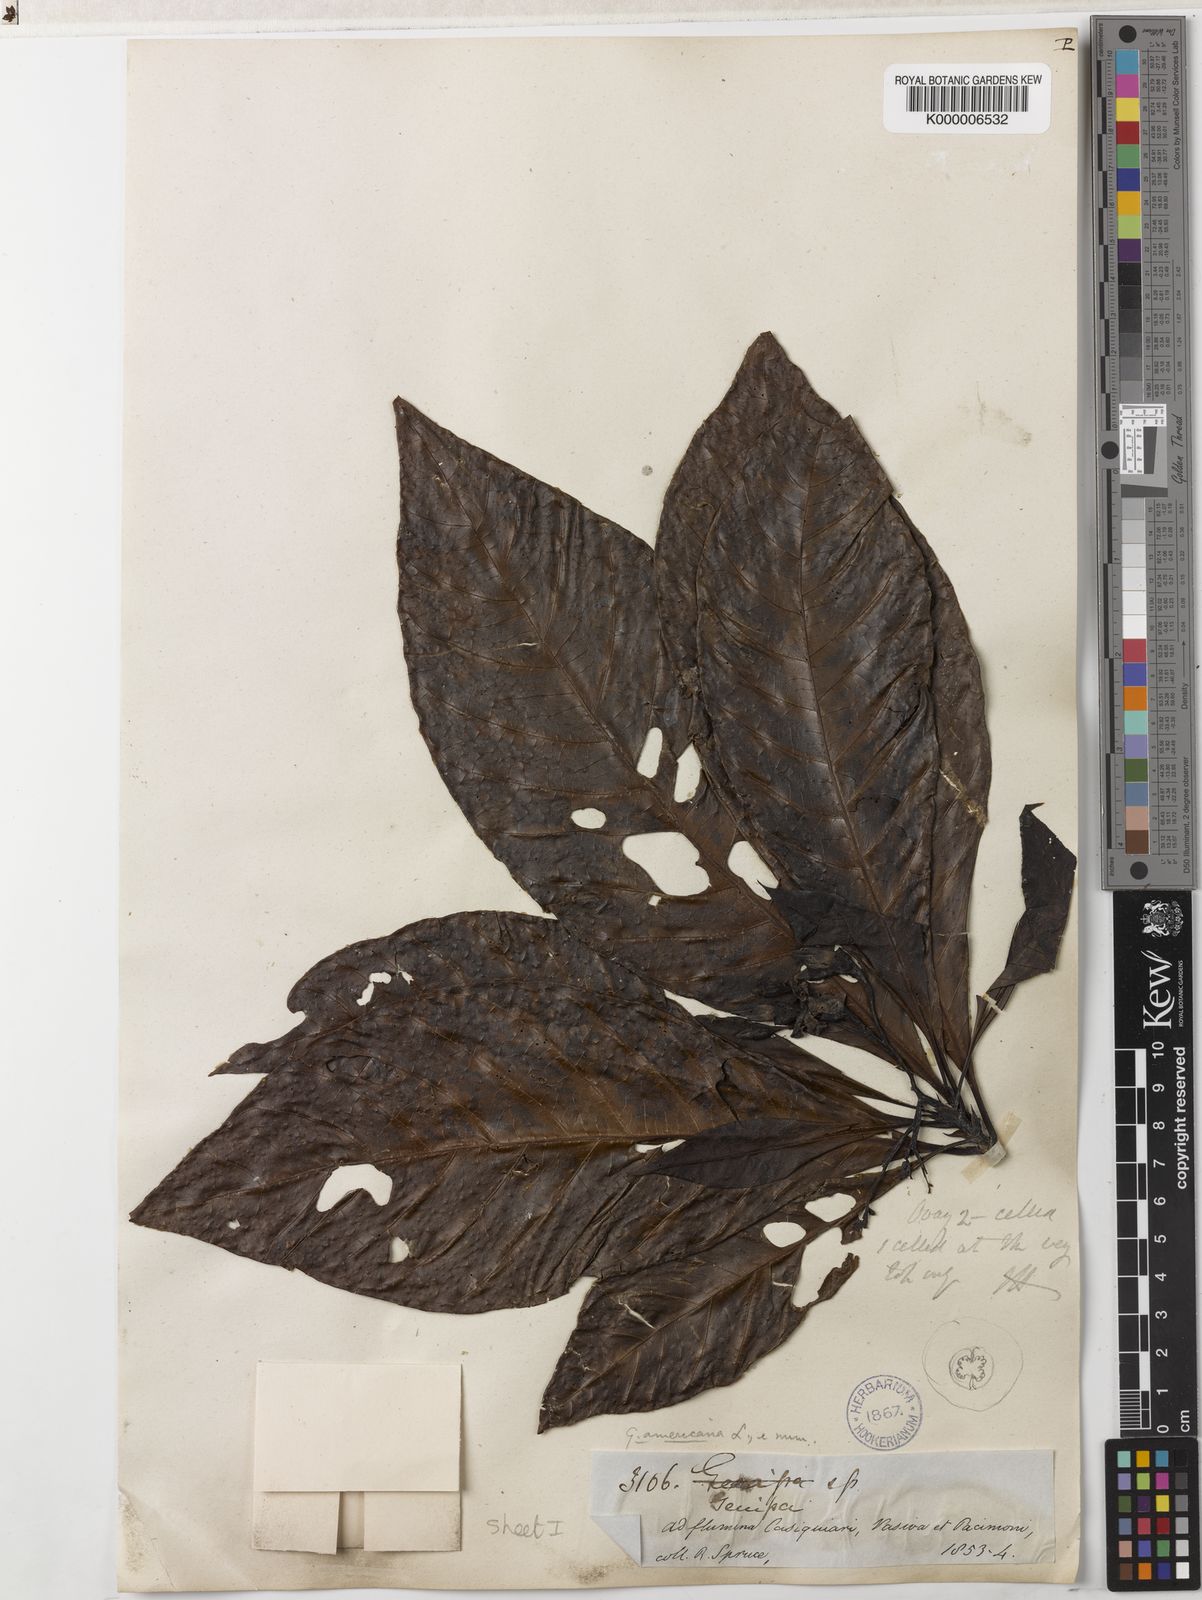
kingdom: Plantae
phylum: Tracheophyta
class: Magnoliopsida
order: Gentianales
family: Rubiaceae
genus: Genipa
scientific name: Genipa americana
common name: Genipap
